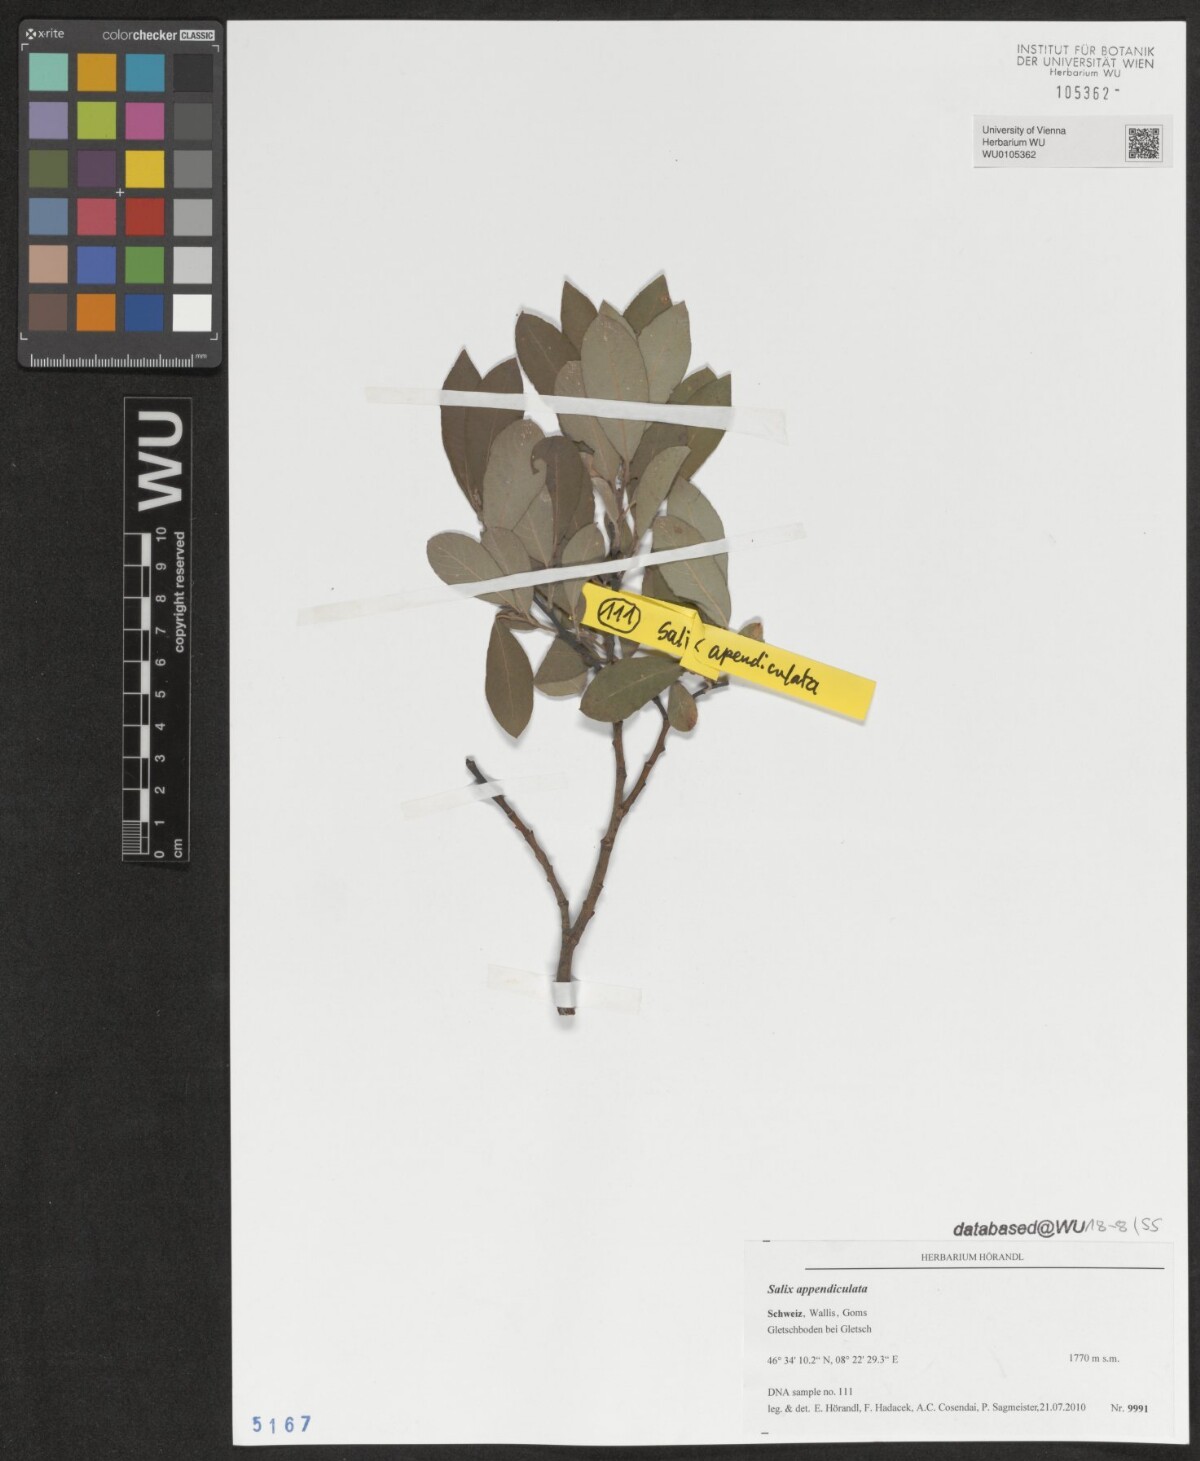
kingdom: Plantae
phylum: Tracheophyta
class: Magnoliopsida
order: Malpighiales
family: Salicaceae
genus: Salix
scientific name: Salix appendiculata
